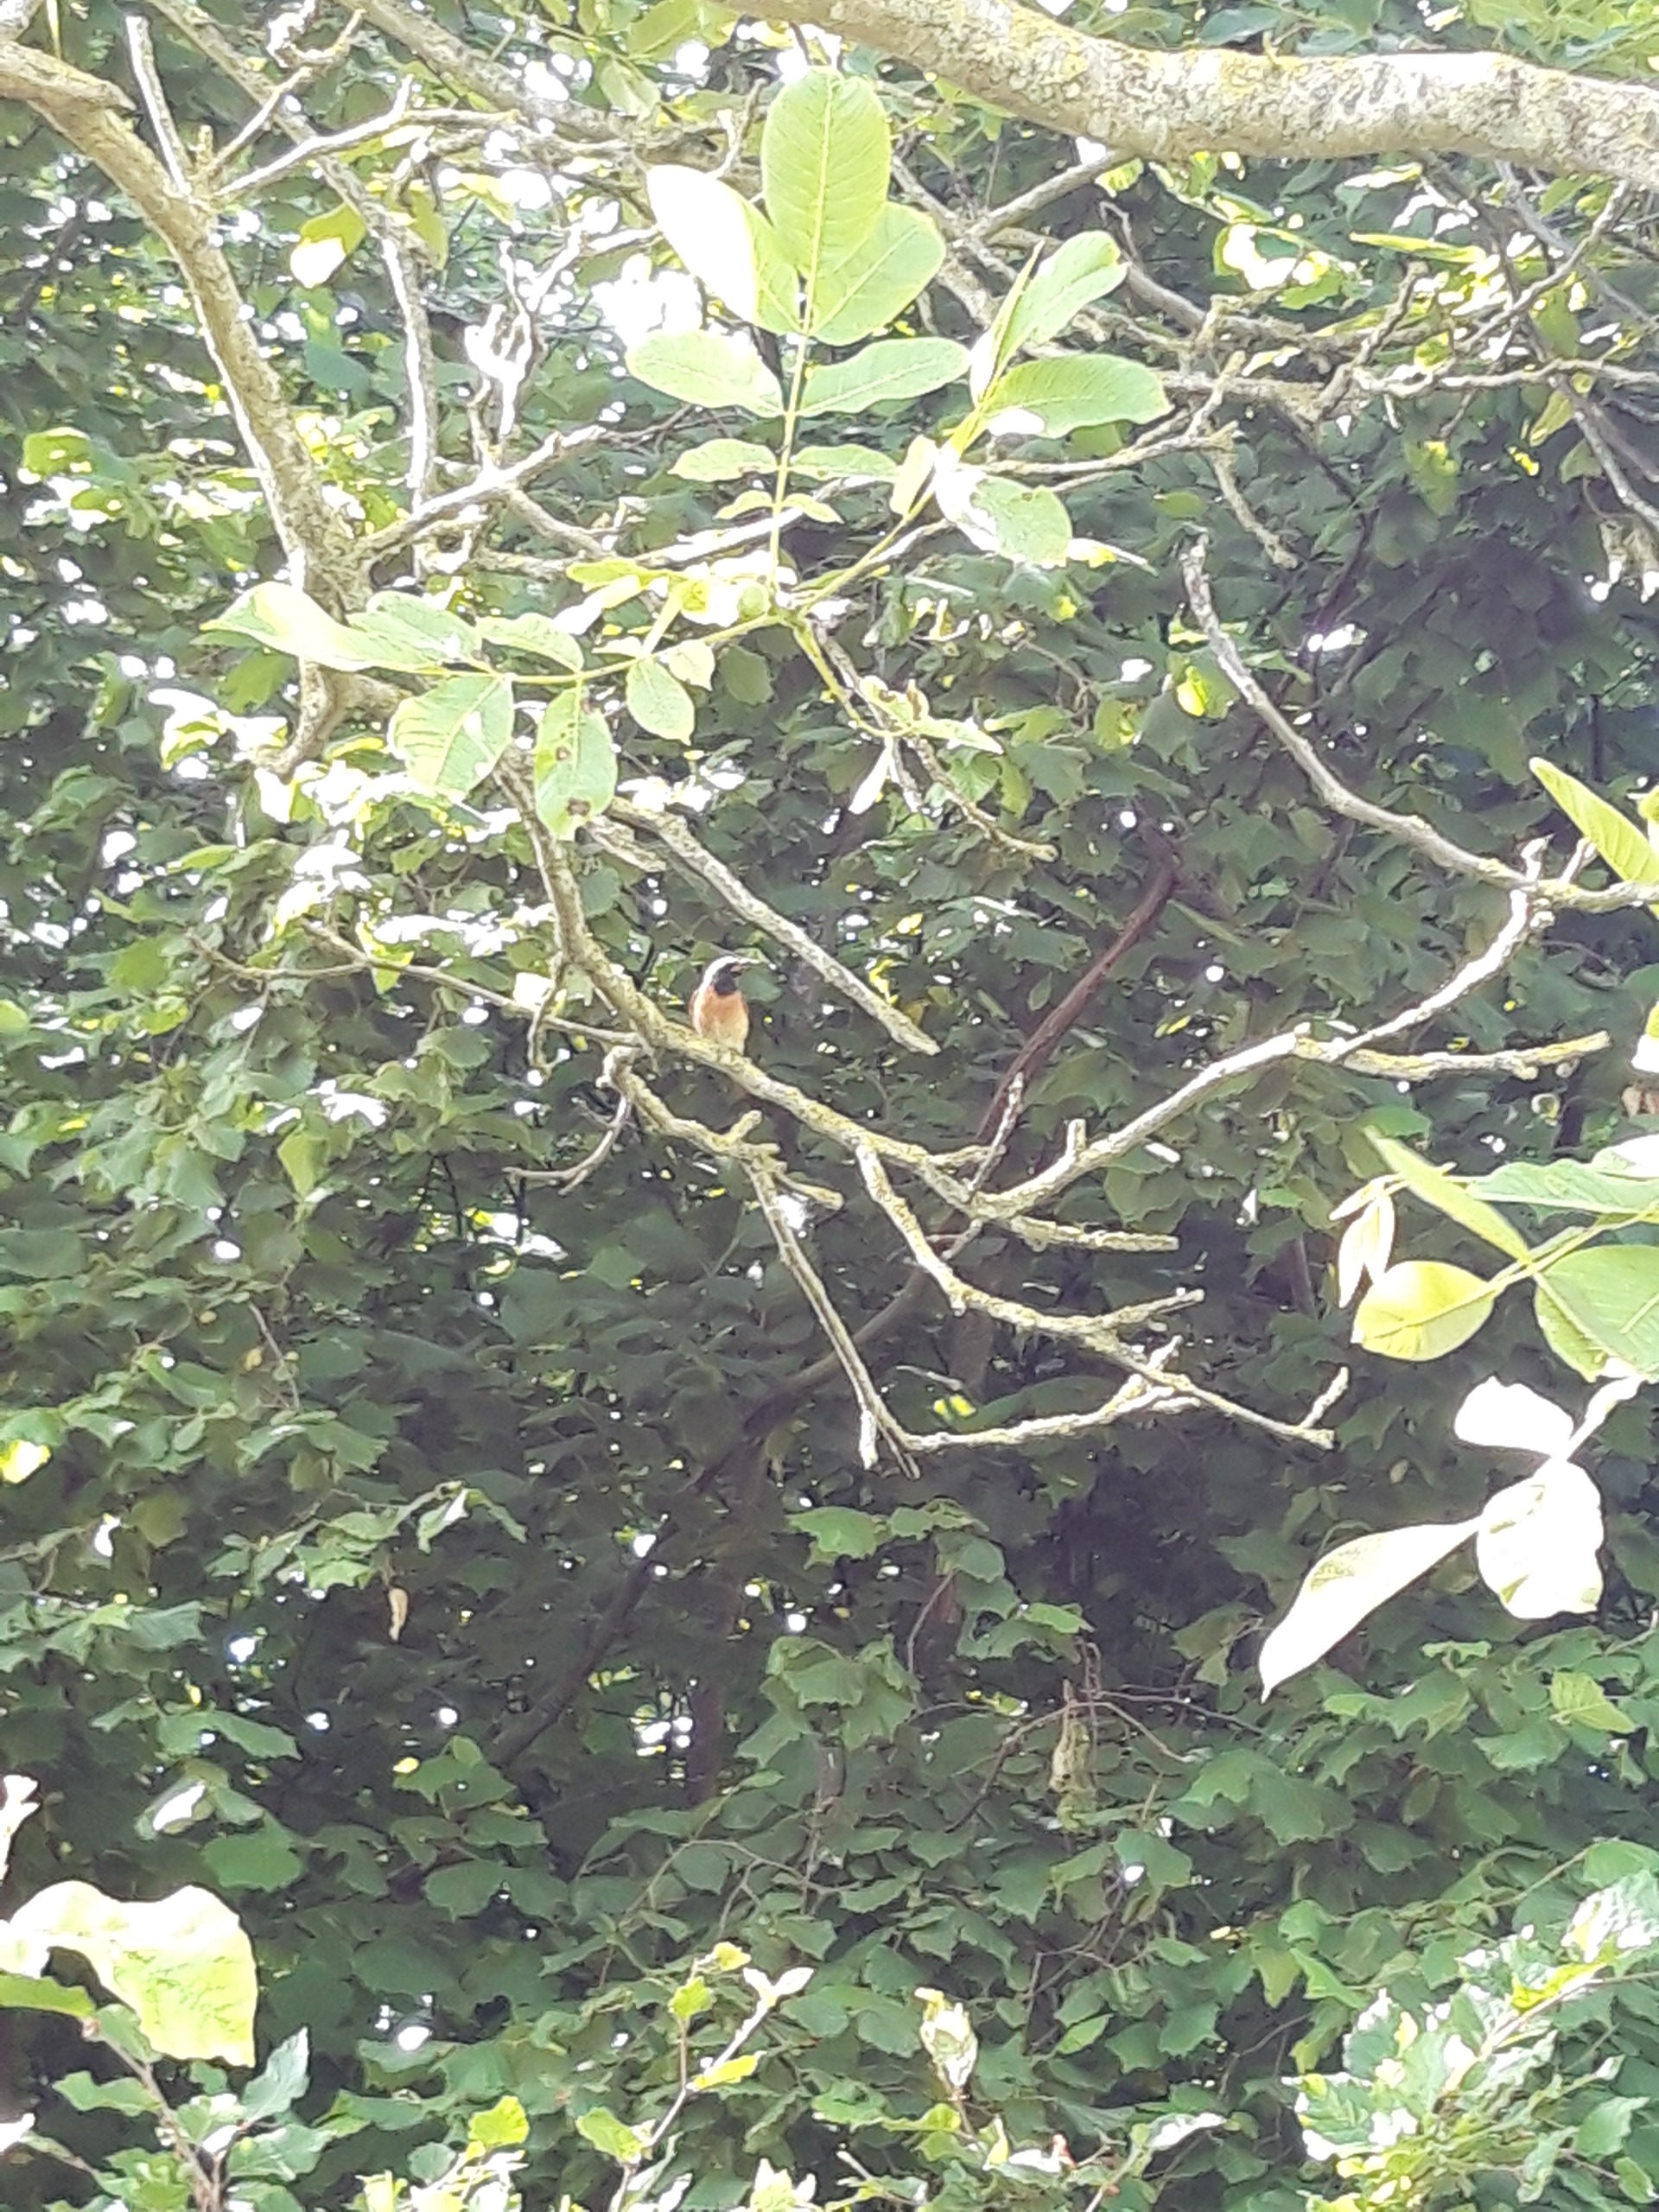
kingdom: Animalia
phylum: Chordata
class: Aves
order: Passeriformes
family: Muscicapidae
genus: Phoenicurus
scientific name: Phoenicurus phoenicurus
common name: Rødstjert
